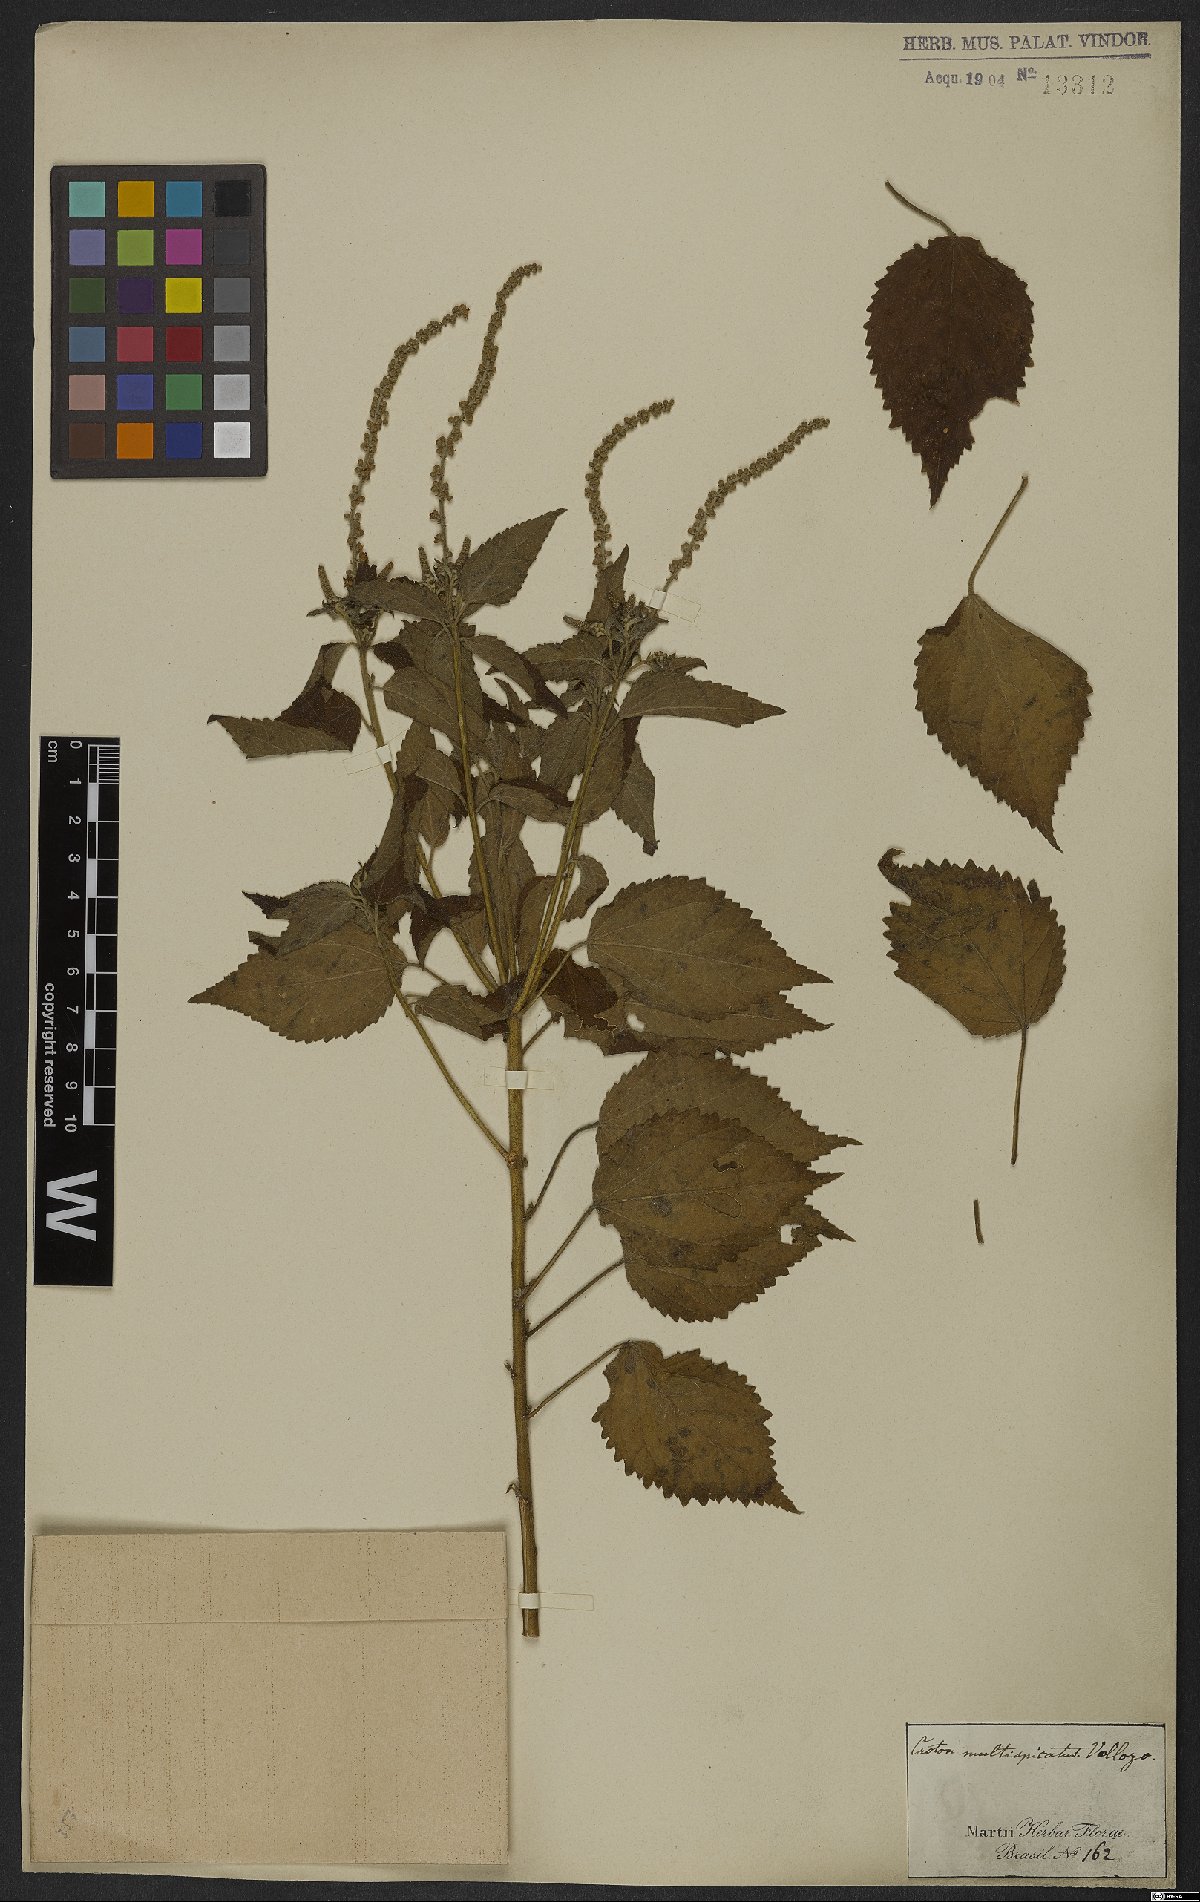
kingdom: Plantae
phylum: Tracheophyta
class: Magnoliopsida
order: Malpighiales
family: Euphorbiaceae
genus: Croton
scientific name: Croton urticifolius
